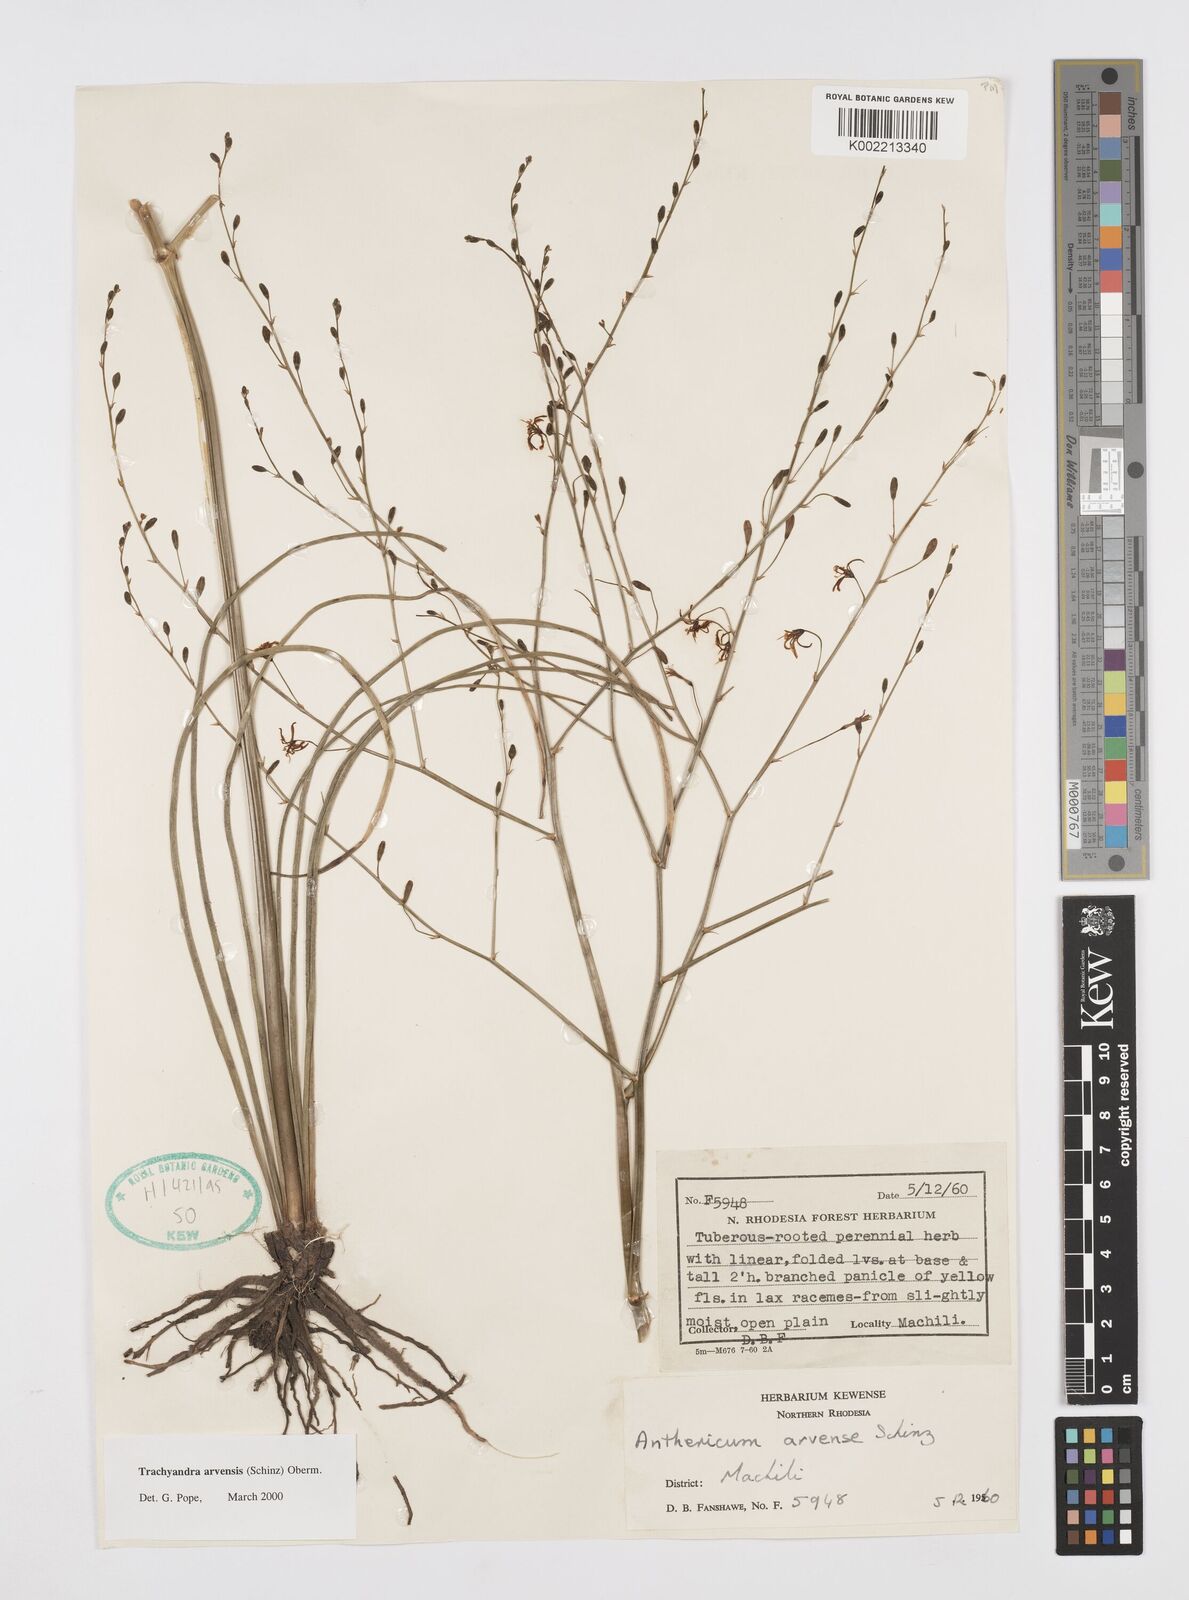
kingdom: Plantae
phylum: Tracheophyta
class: Liliopsida
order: Asparagales
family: Asphodelaceae
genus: Trachyandra
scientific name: Trachyandra arvensis
